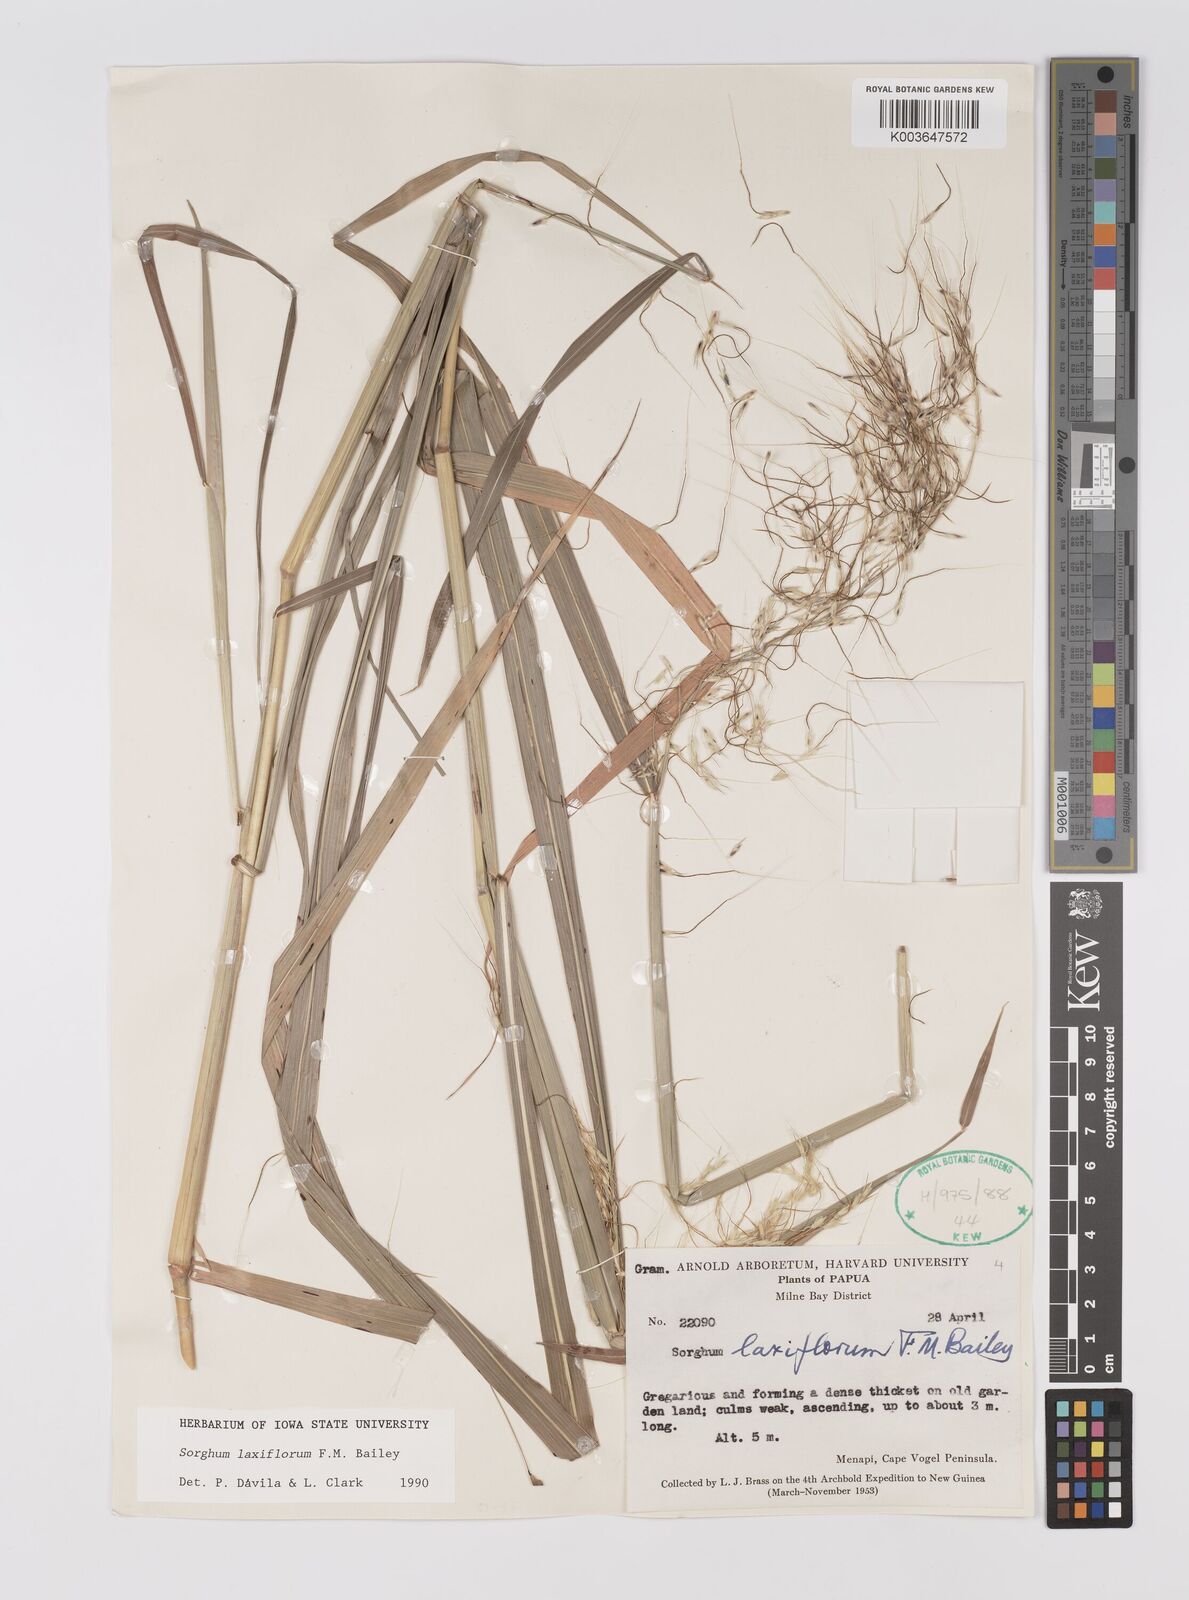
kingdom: Plantae
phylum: Tracheophyta
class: Liliopsida
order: Poales
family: Poaceae
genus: Sorghum
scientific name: Sorghum laxiflorum
